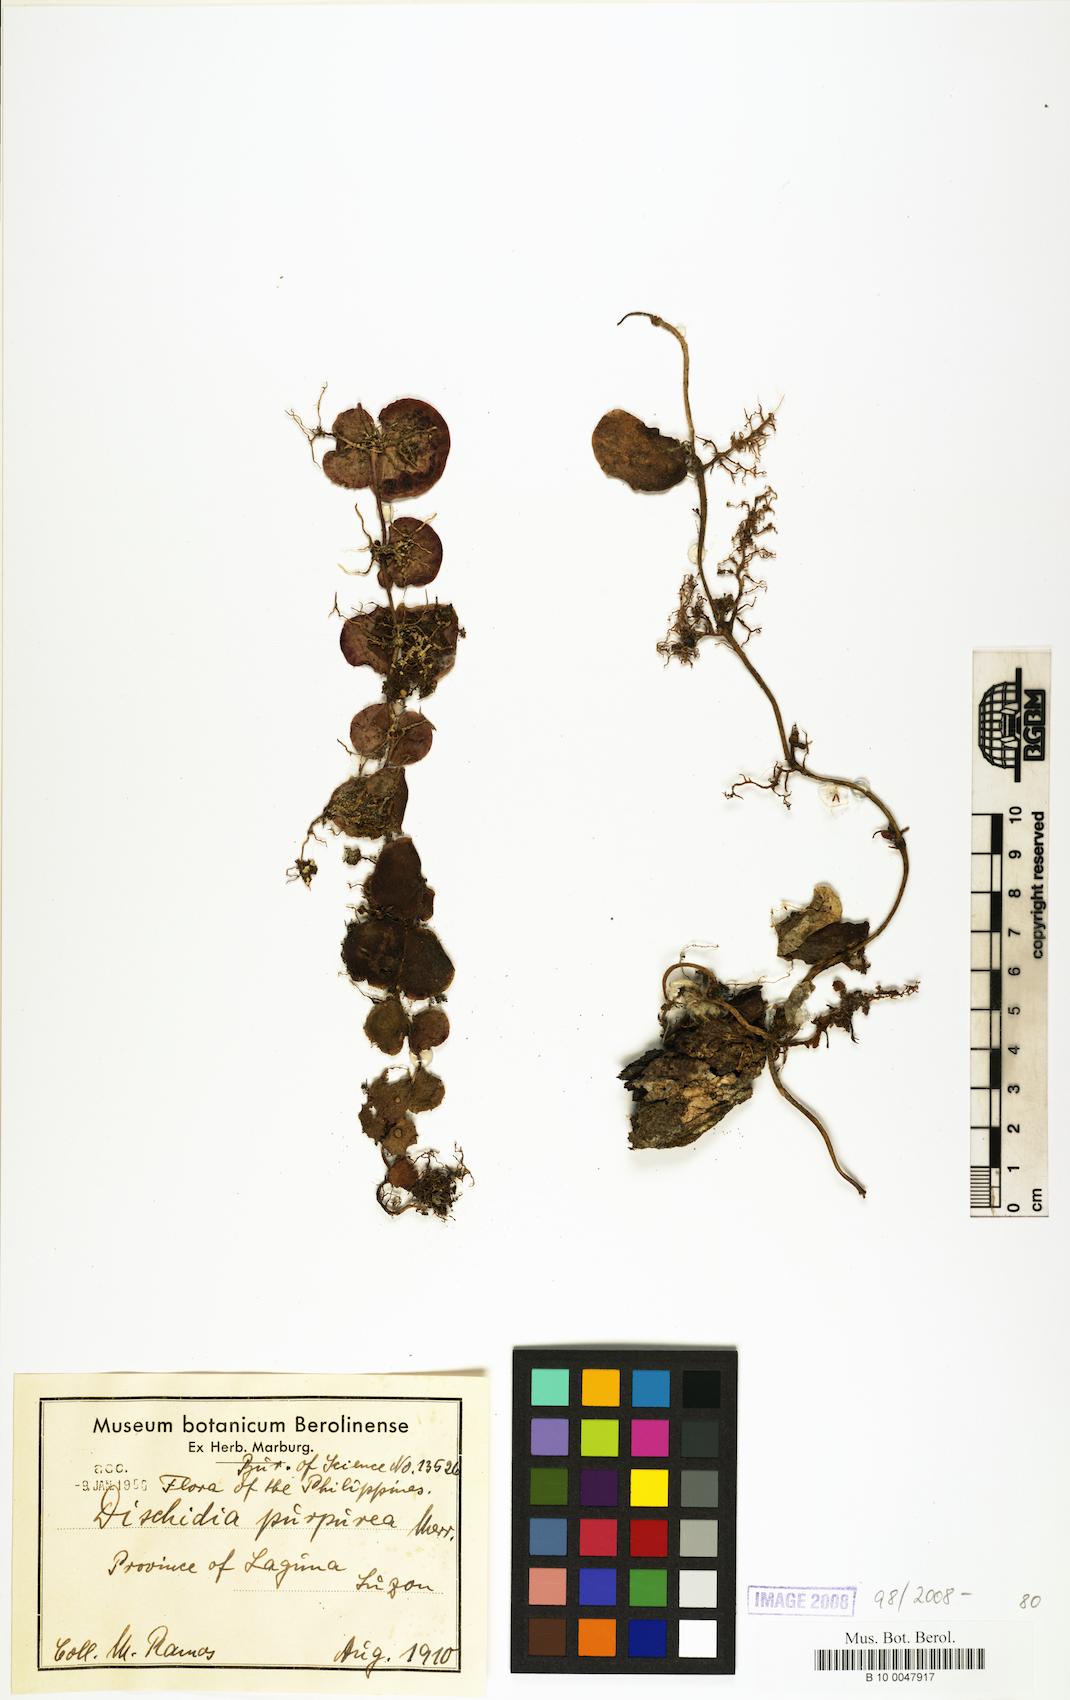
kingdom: Plantae
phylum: Tracheophyta
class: Magnoliopsida
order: Gentianales
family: Apocynaceae
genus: Dischidia
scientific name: Dischidia purpurea
